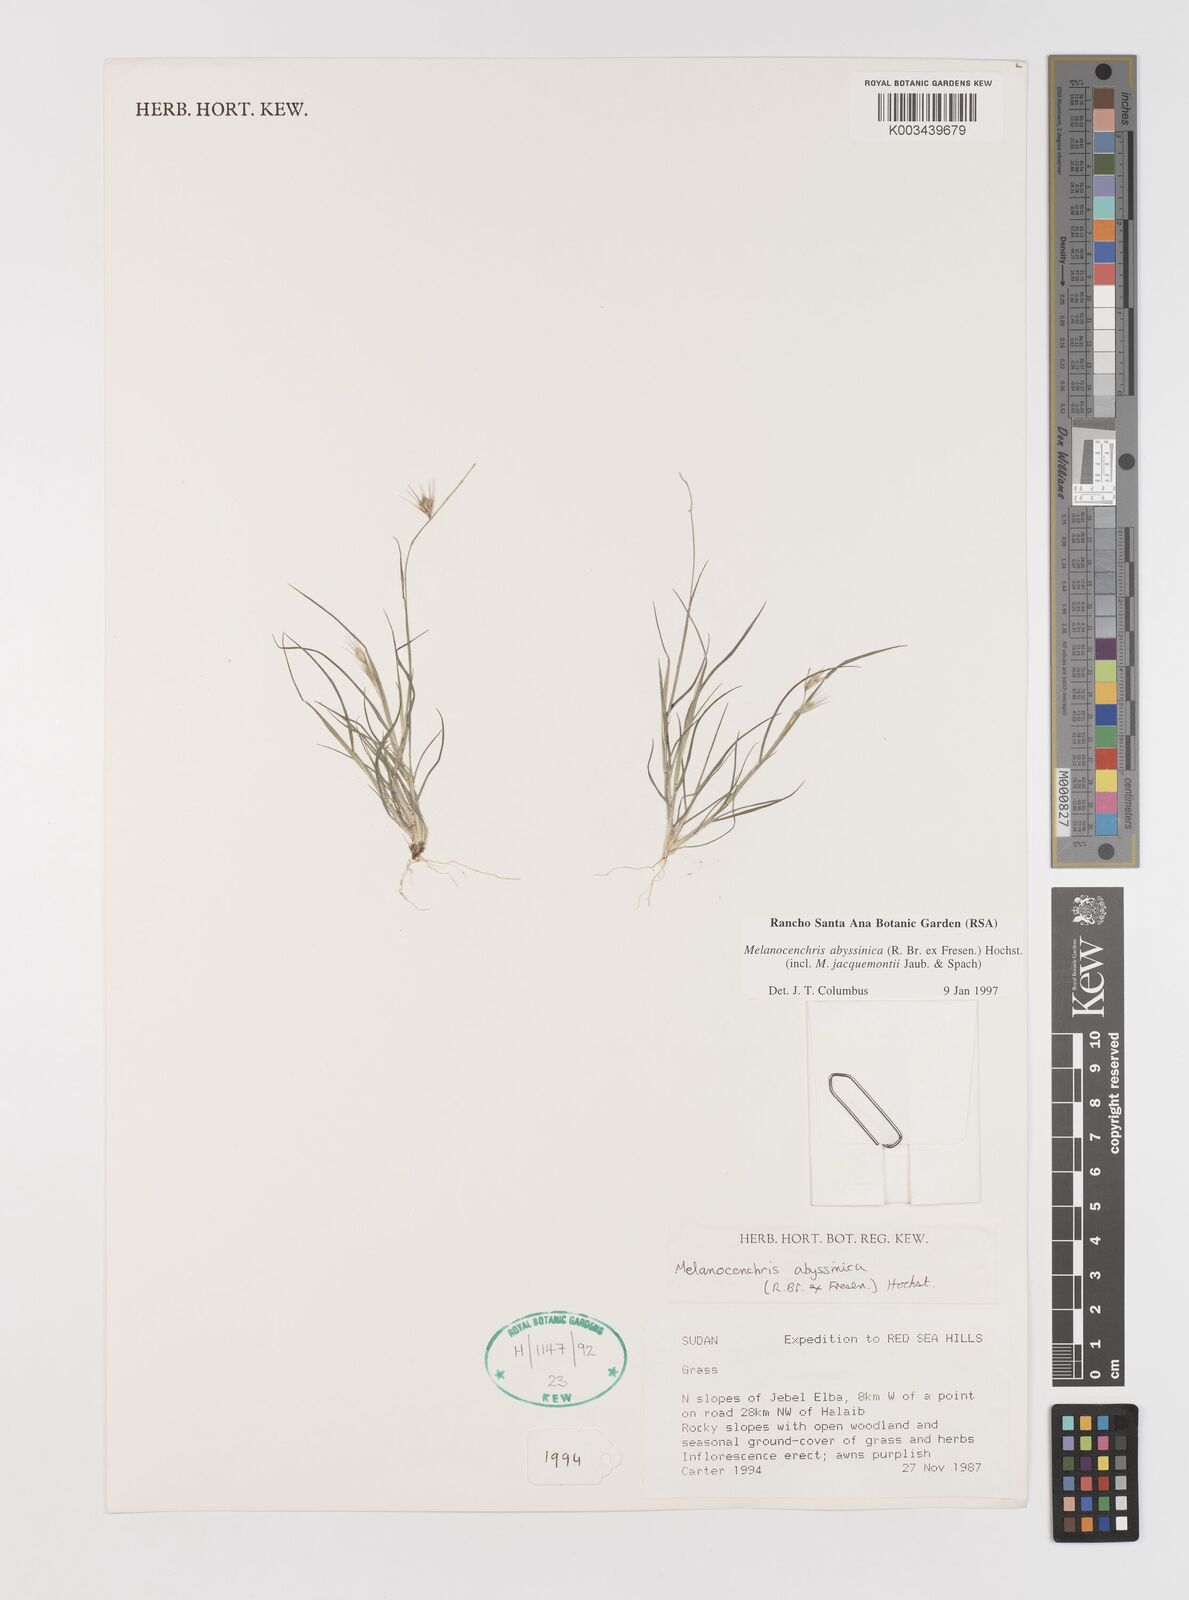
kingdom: Plantae
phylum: Tracheophyta
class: Liliopsida
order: Poales
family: Poaceae
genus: Melanocenchris
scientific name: Melanocenchris abyssinica
